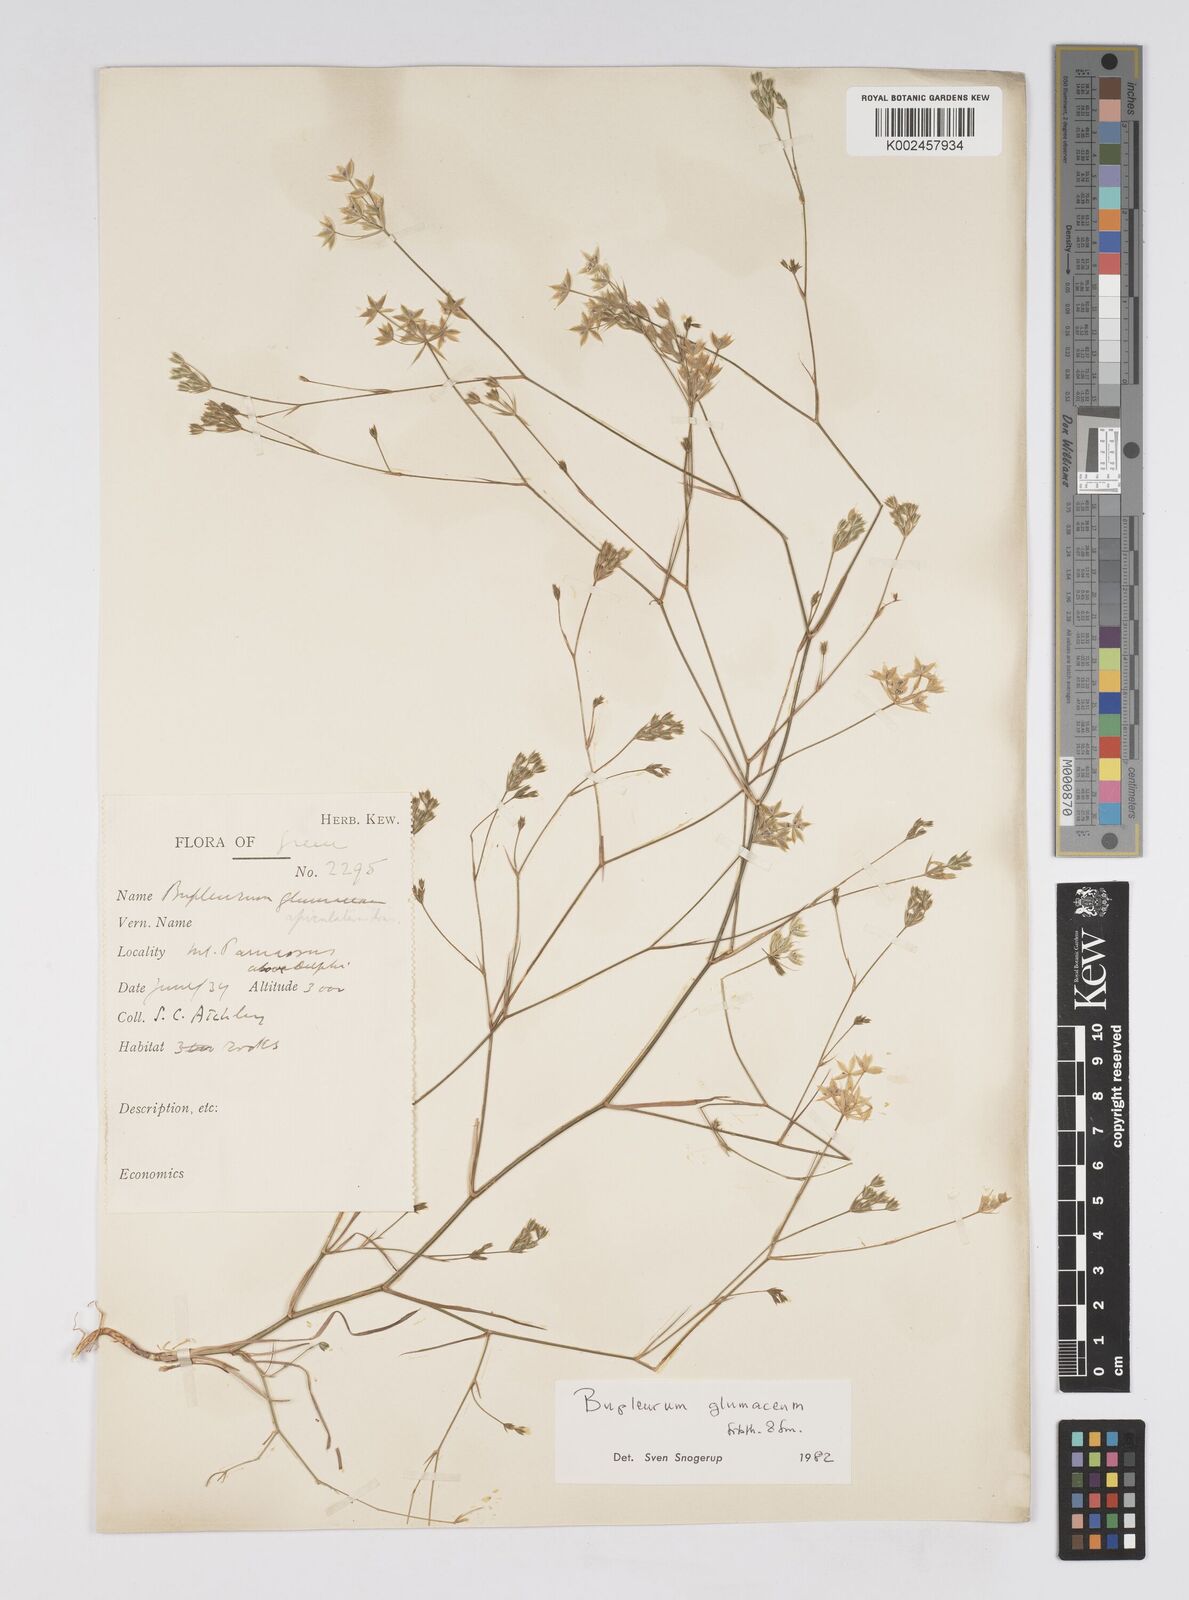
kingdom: Plantae
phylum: Tracheophyta
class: Magnoliopsida
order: Apiales
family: Apiaceae
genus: Bupleurum
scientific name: Bupleurum glumaceum
